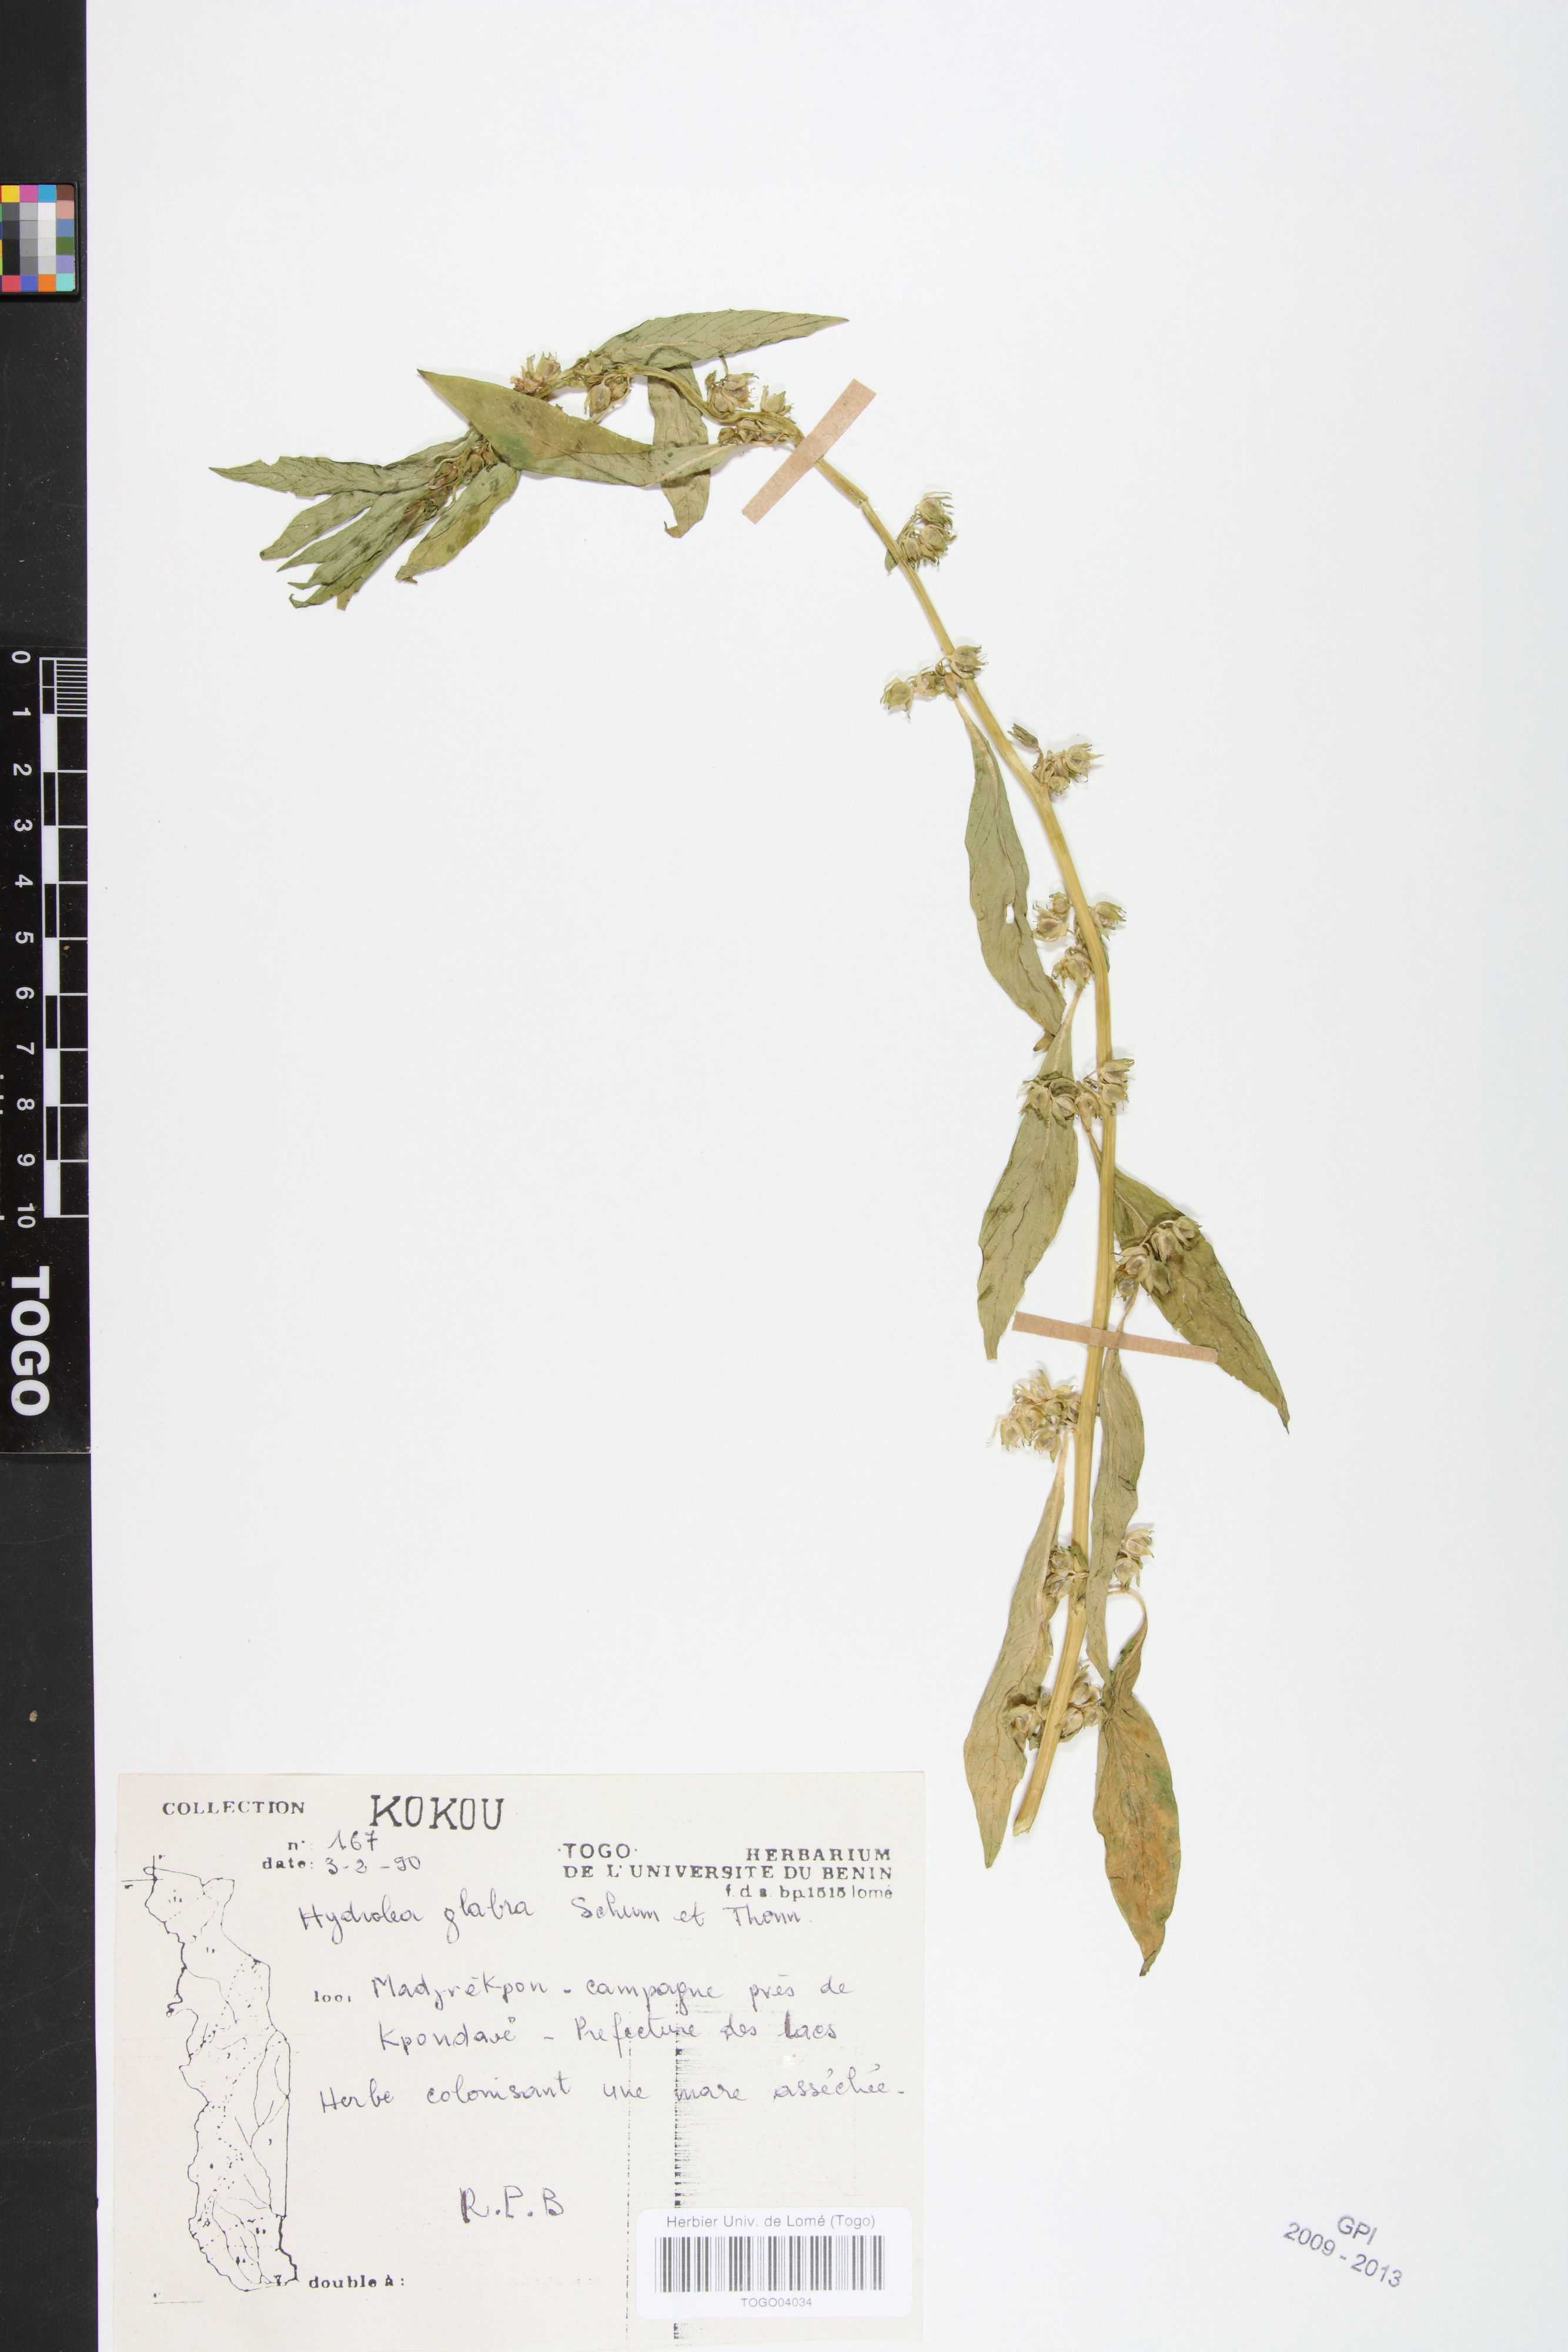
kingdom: Plantae
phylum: Tracheophyta
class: Magnoliopsida
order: Solanales
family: Hydroleaceae
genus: Hydrolea
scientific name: Hydrolea palustris
